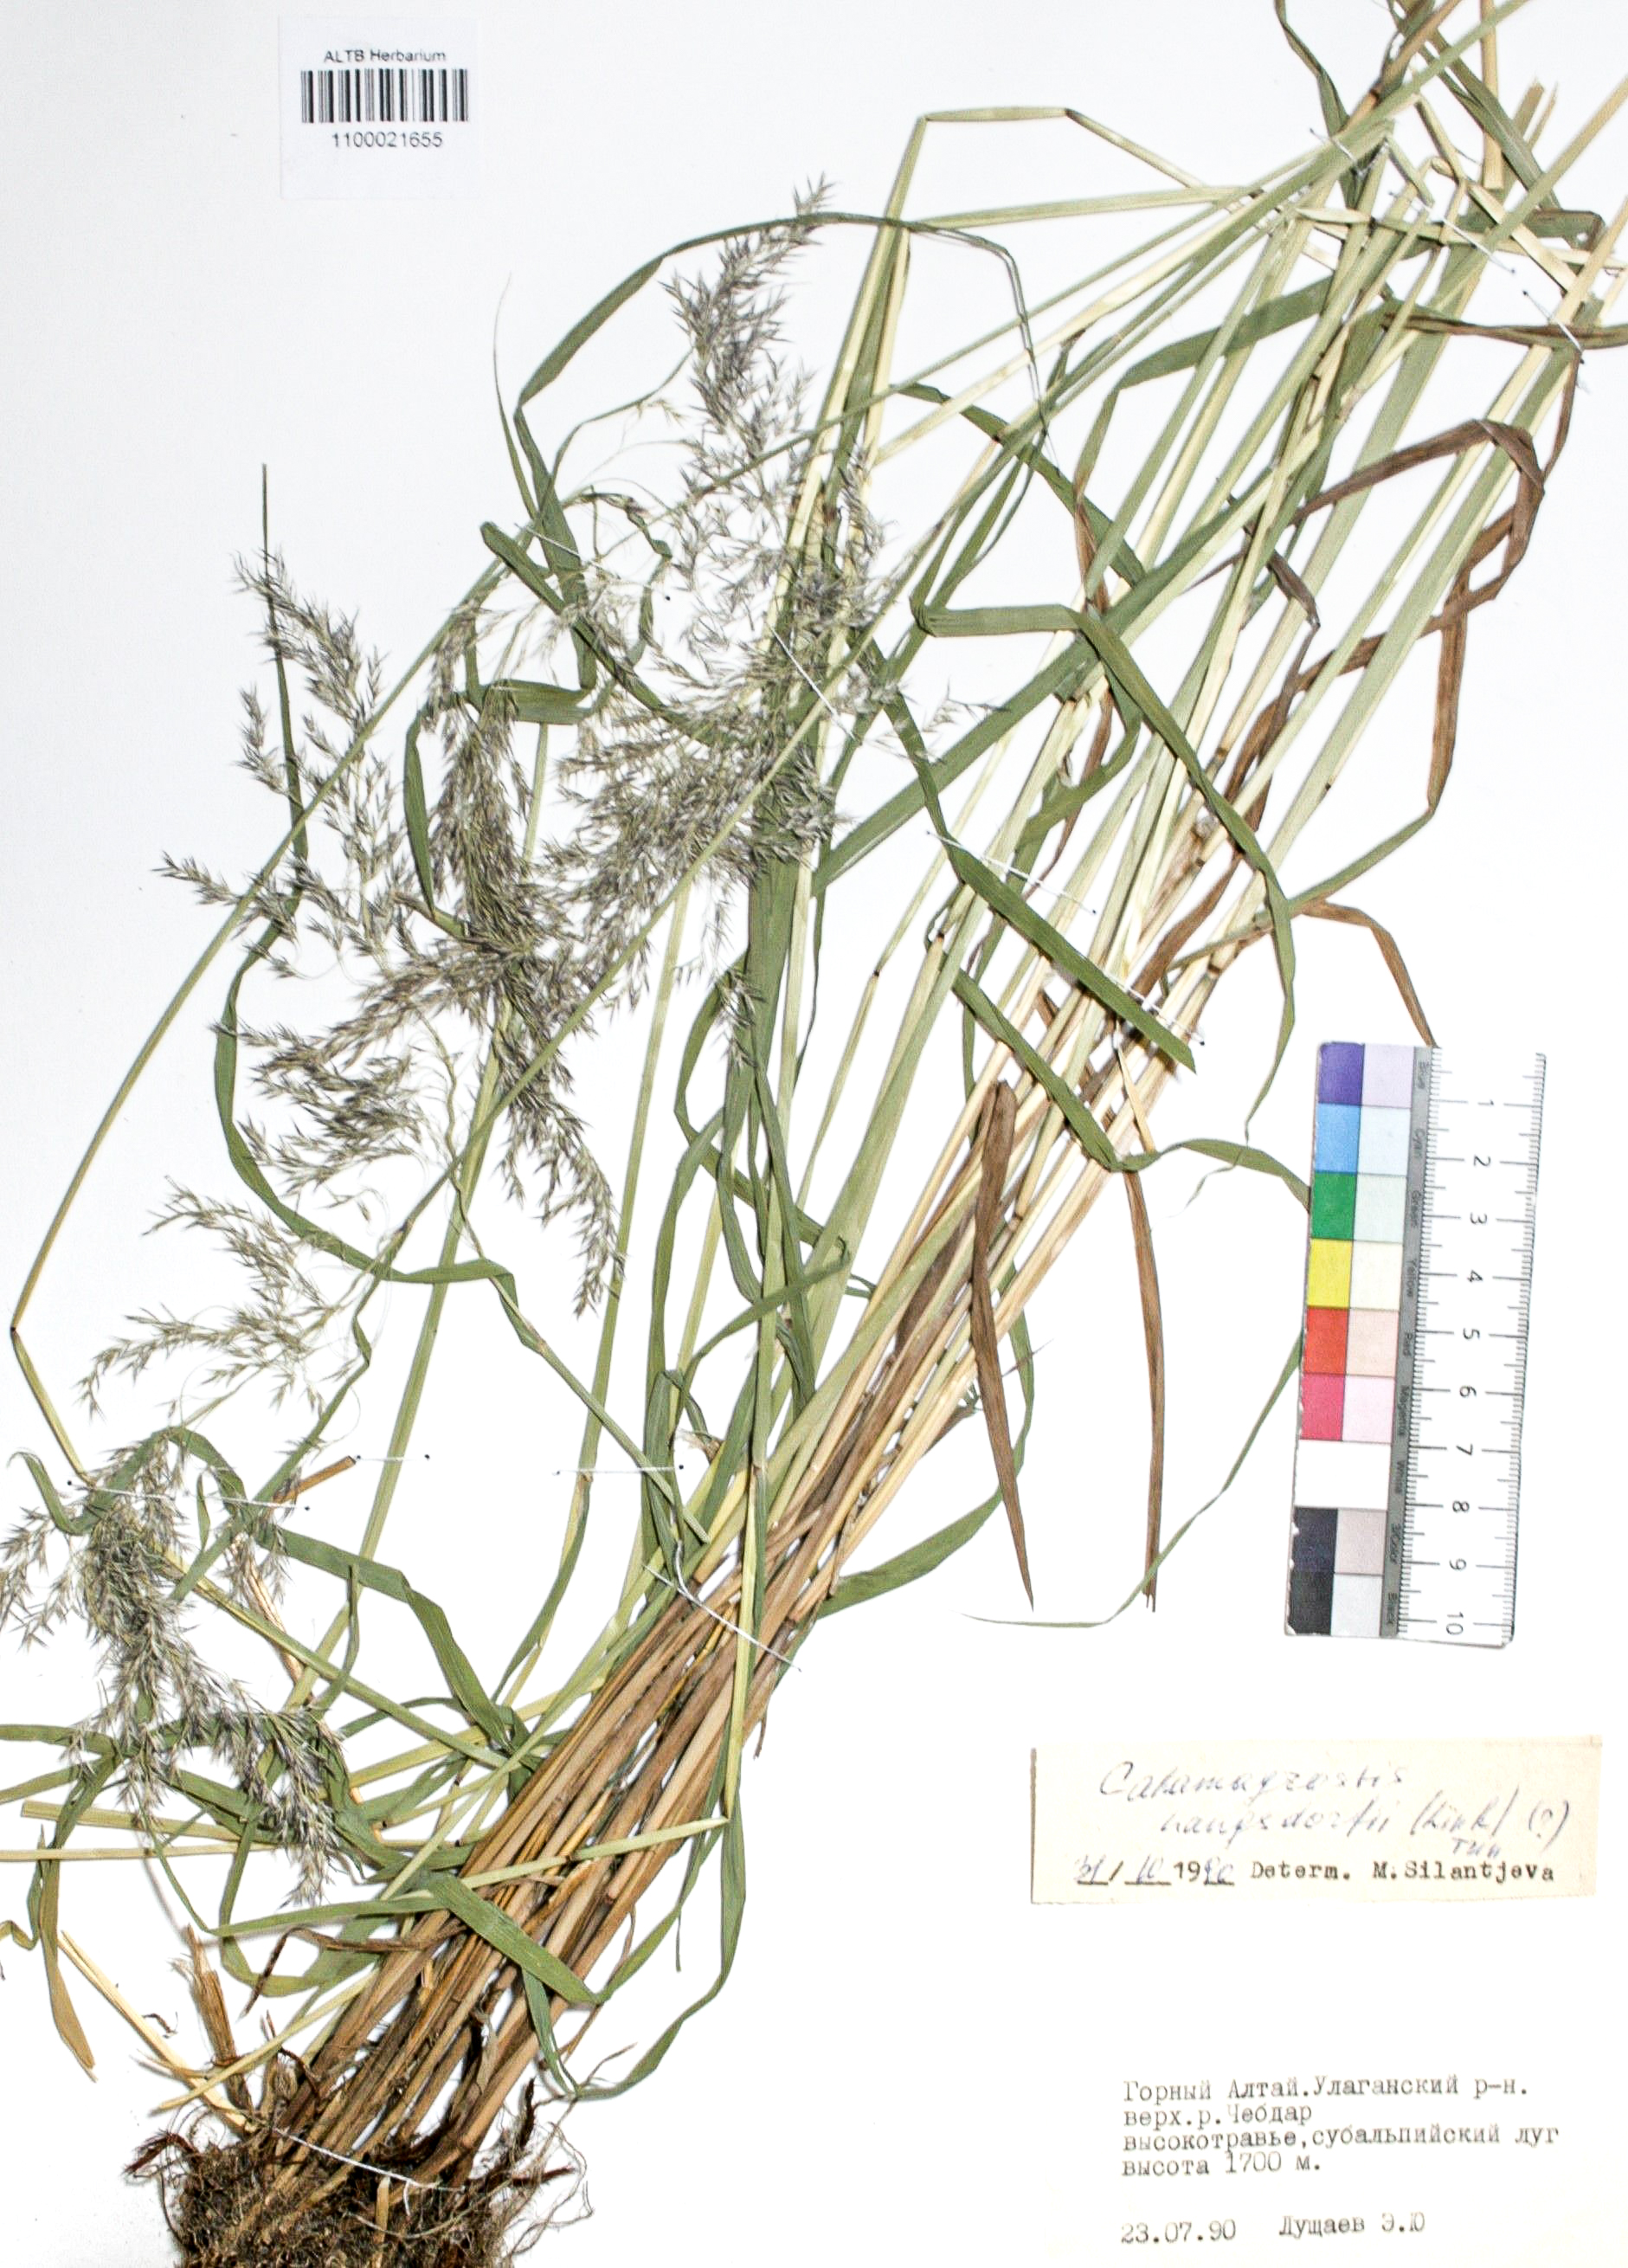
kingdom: Plantae
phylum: Tracheophyta
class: Liliopsida
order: Poales
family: Poaceae
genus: Calamagrostis
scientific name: Calamagrostis purpurea
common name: Scandinavian small-reed
